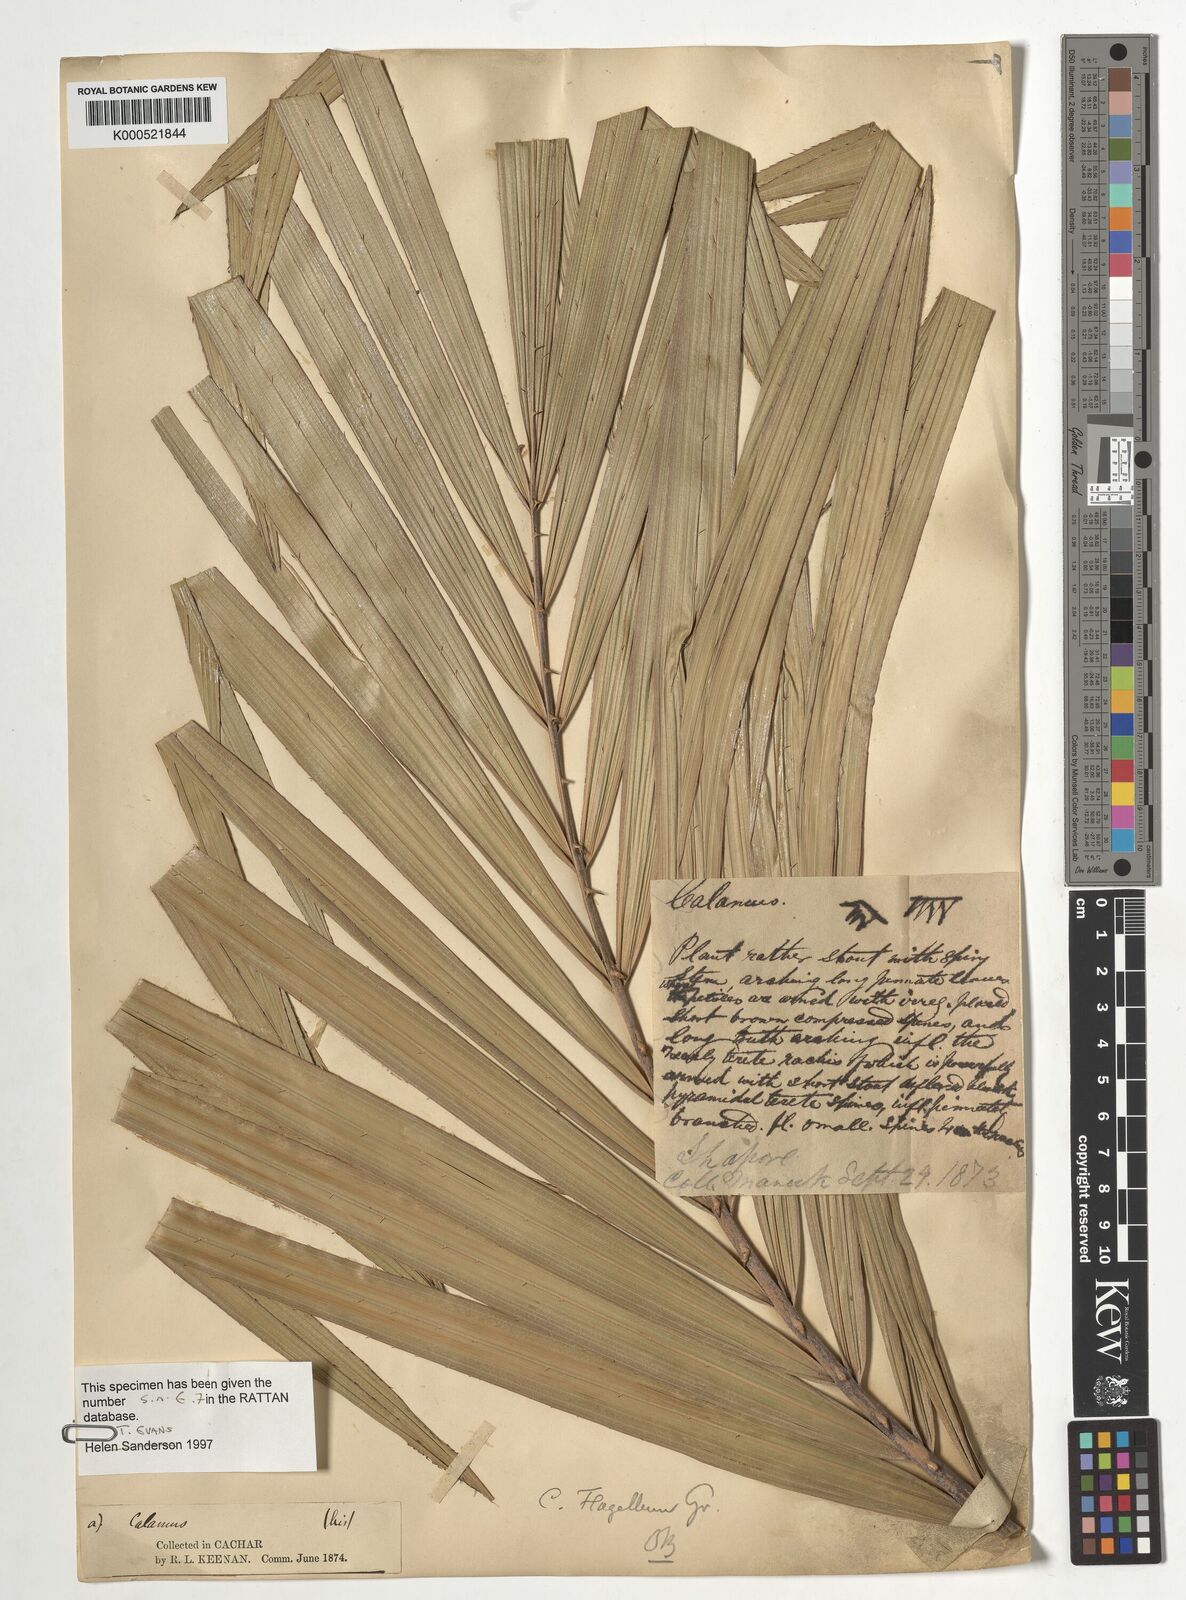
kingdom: Plantae
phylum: Tracheophyta
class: Liliopsida
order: Arecales
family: Arecaceae
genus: Calamus
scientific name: Calamus
